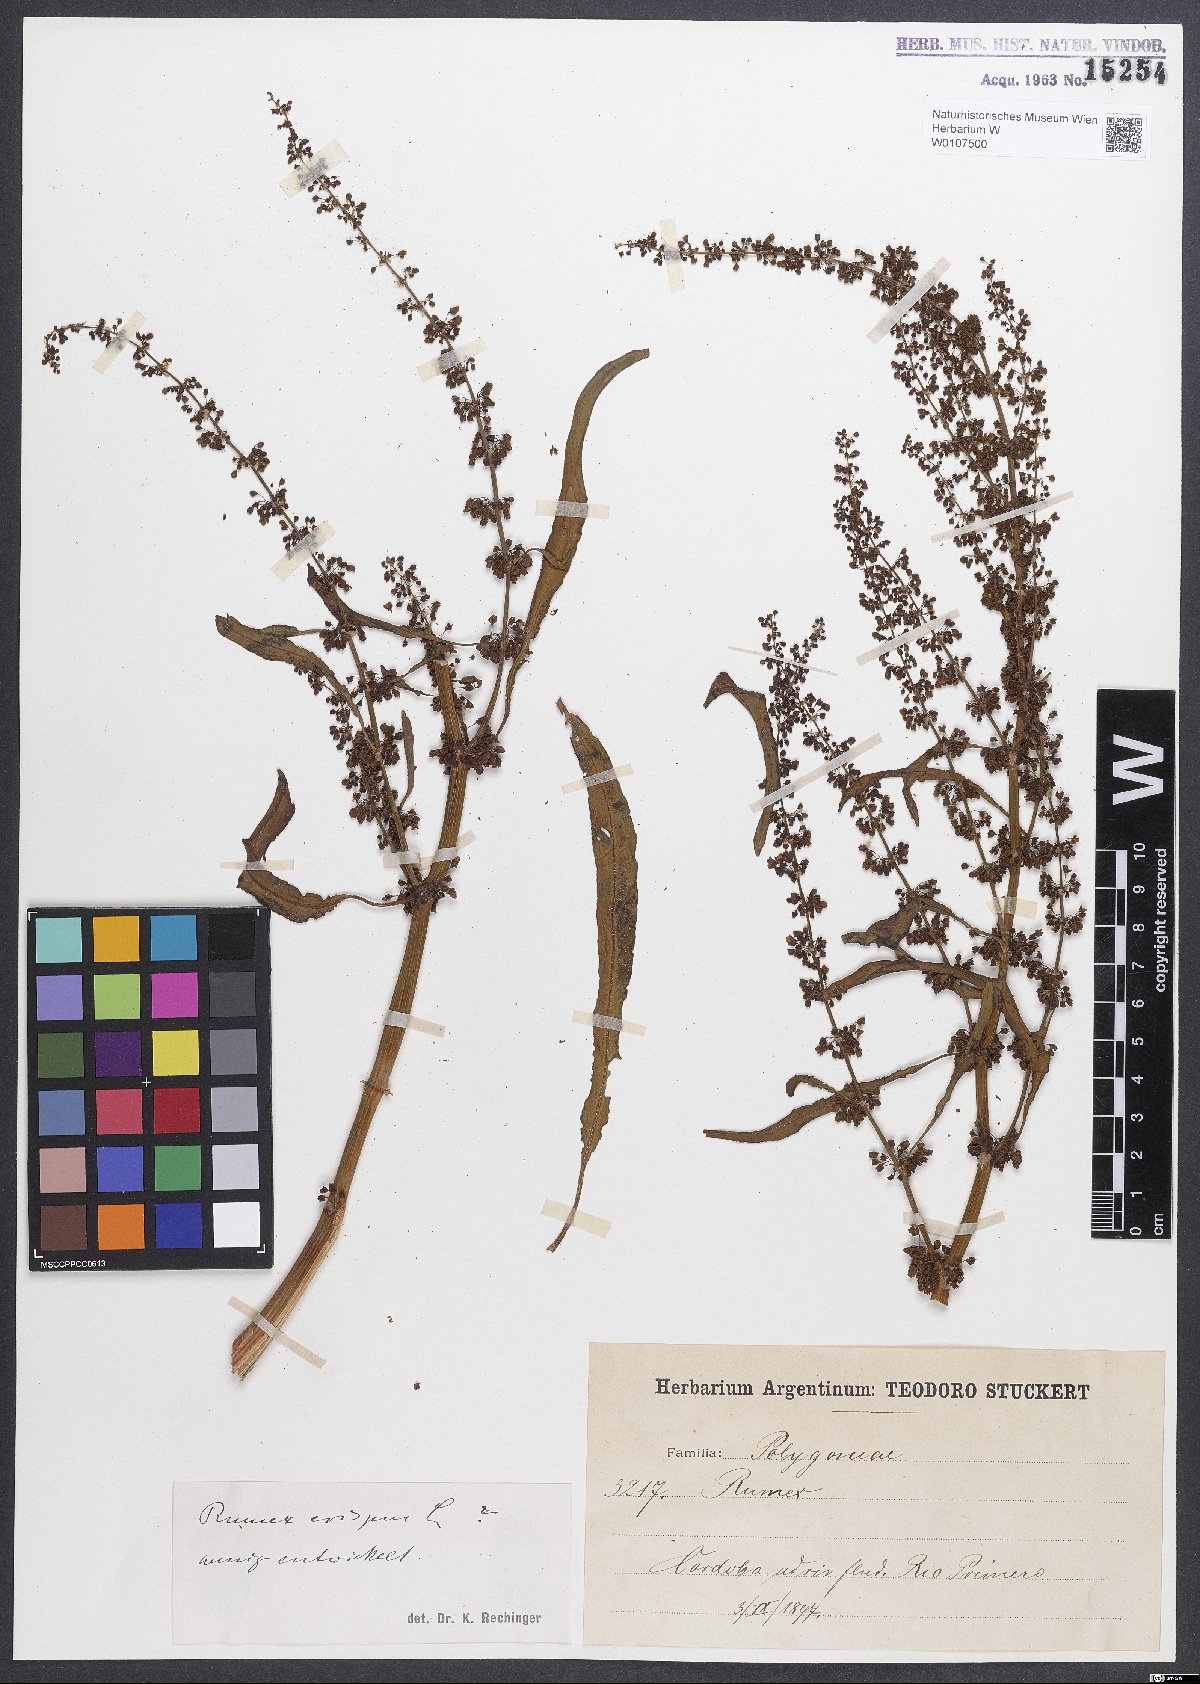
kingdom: Plantae
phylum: Tracheophyta
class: Magnoliopsida
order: Caryophyllales
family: Polygonaceae
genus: Rumex
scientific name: Rumex crispus
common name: Curled dock
